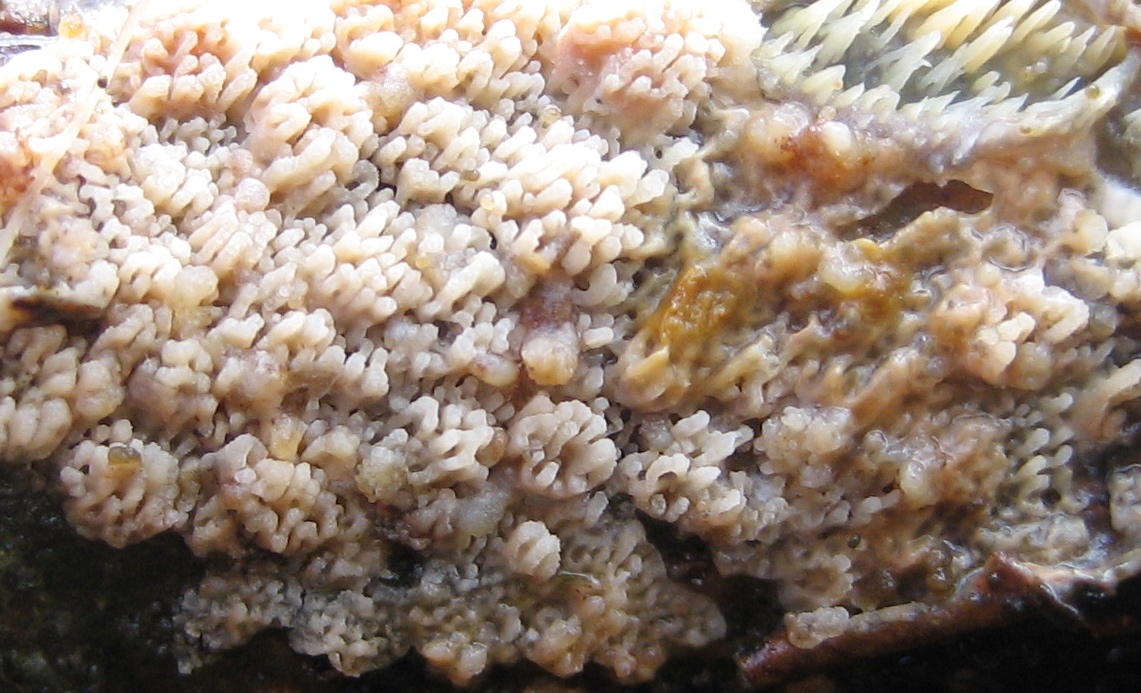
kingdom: Fungi
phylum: Basidiomycota
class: Agaricomycetes
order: Corticiales
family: Corticiaceae
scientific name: Corticiaceae
